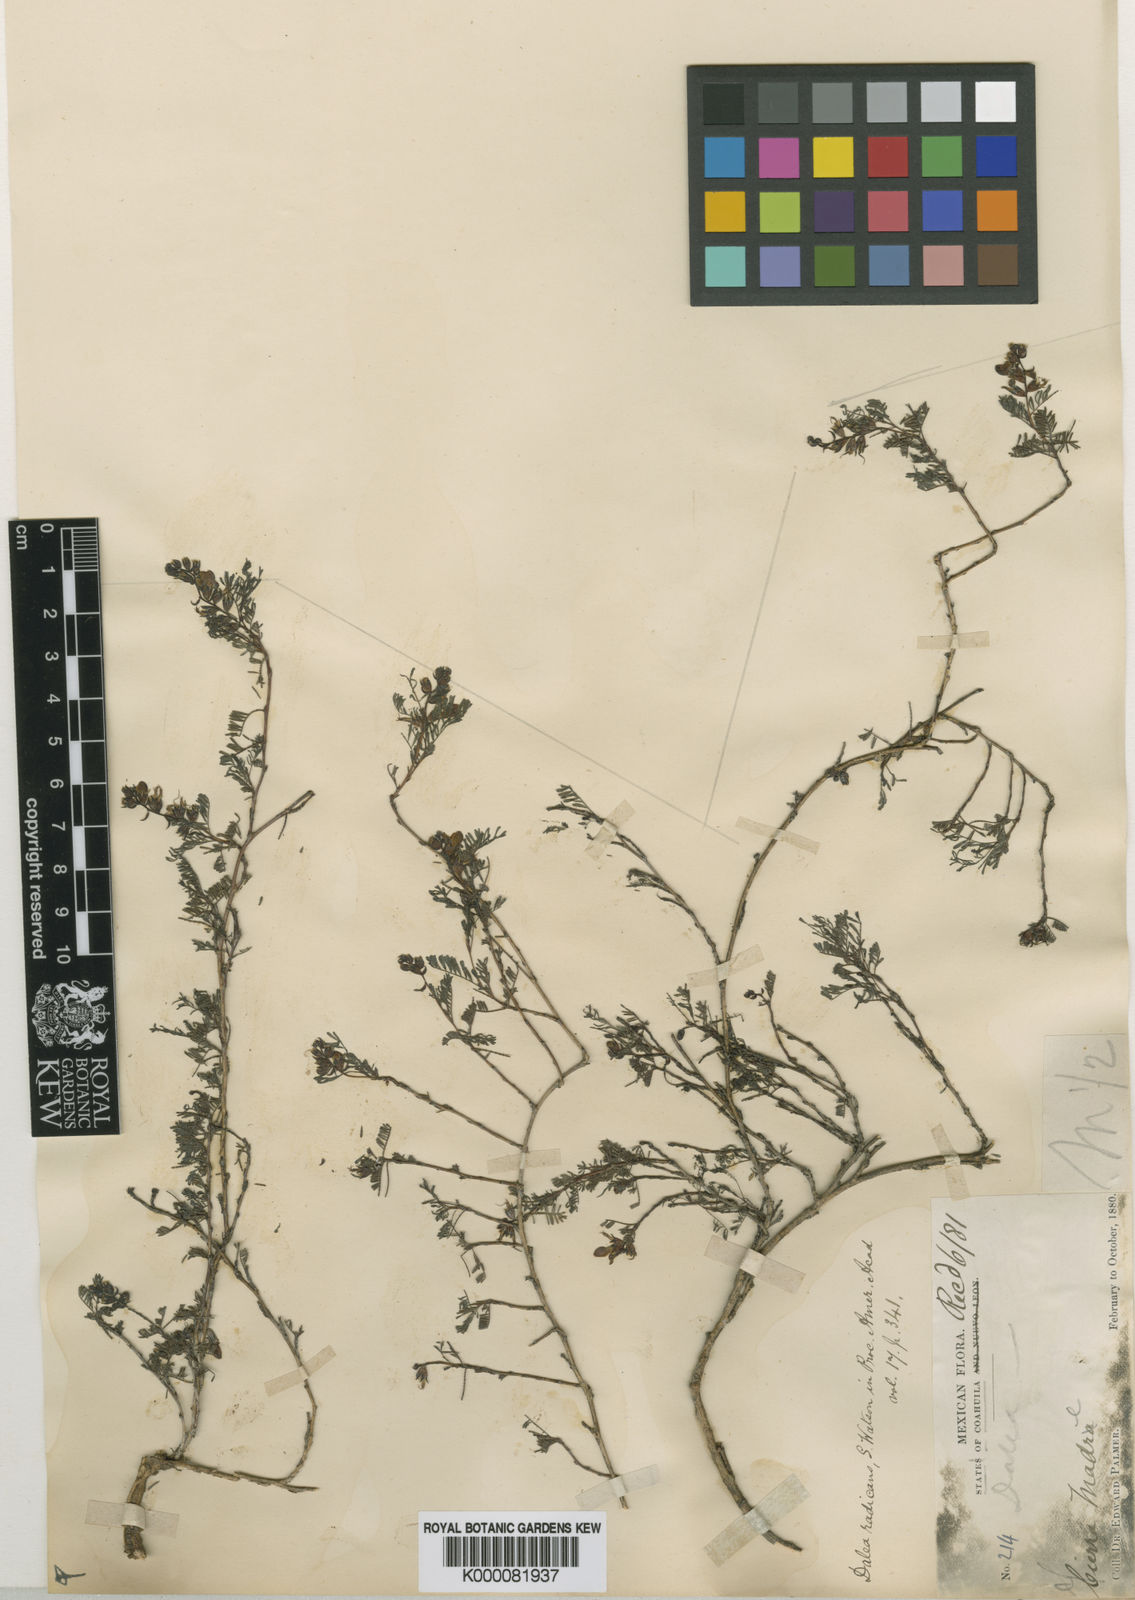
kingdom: Plantae
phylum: Tracheophyta
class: Magnoliopsida
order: Fabales
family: Fabaceae
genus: Dalea
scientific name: Dalea
